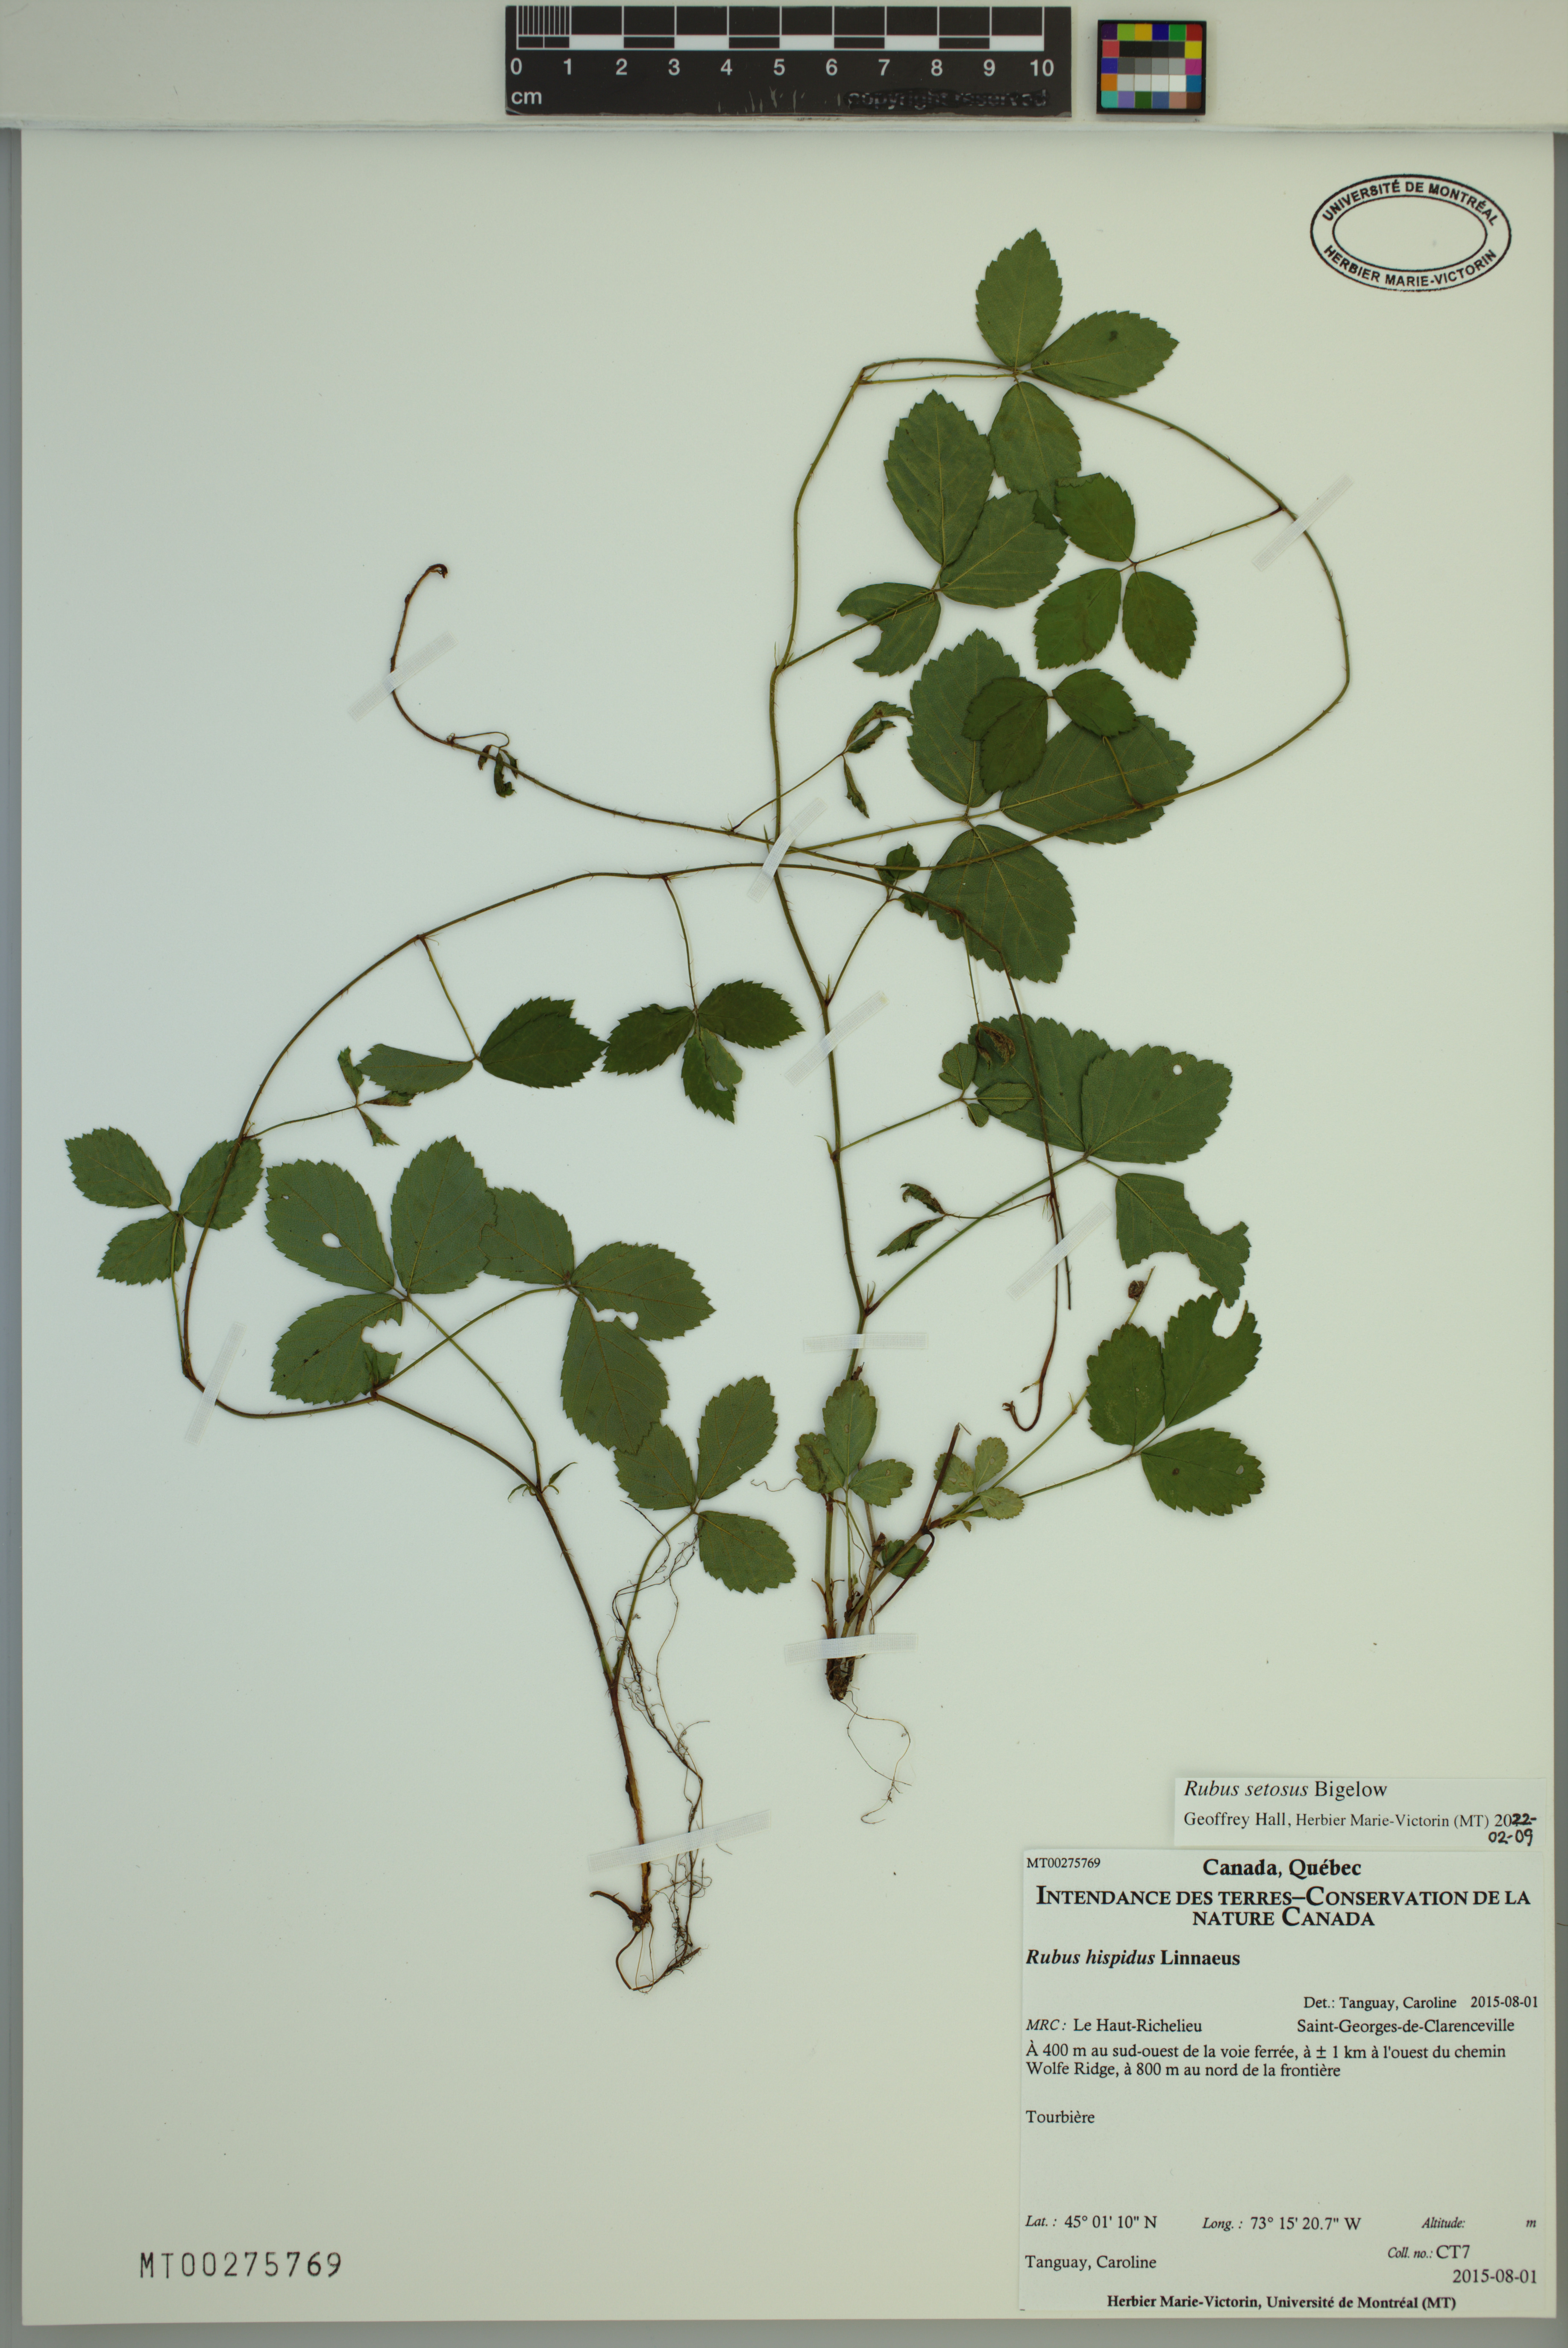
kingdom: Plantae
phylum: Tracheophyta
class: Magnoliopsida
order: Rosales
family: Rosaceae
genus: Rubus
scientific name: Rubus setosus
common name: Bristly blackberry
